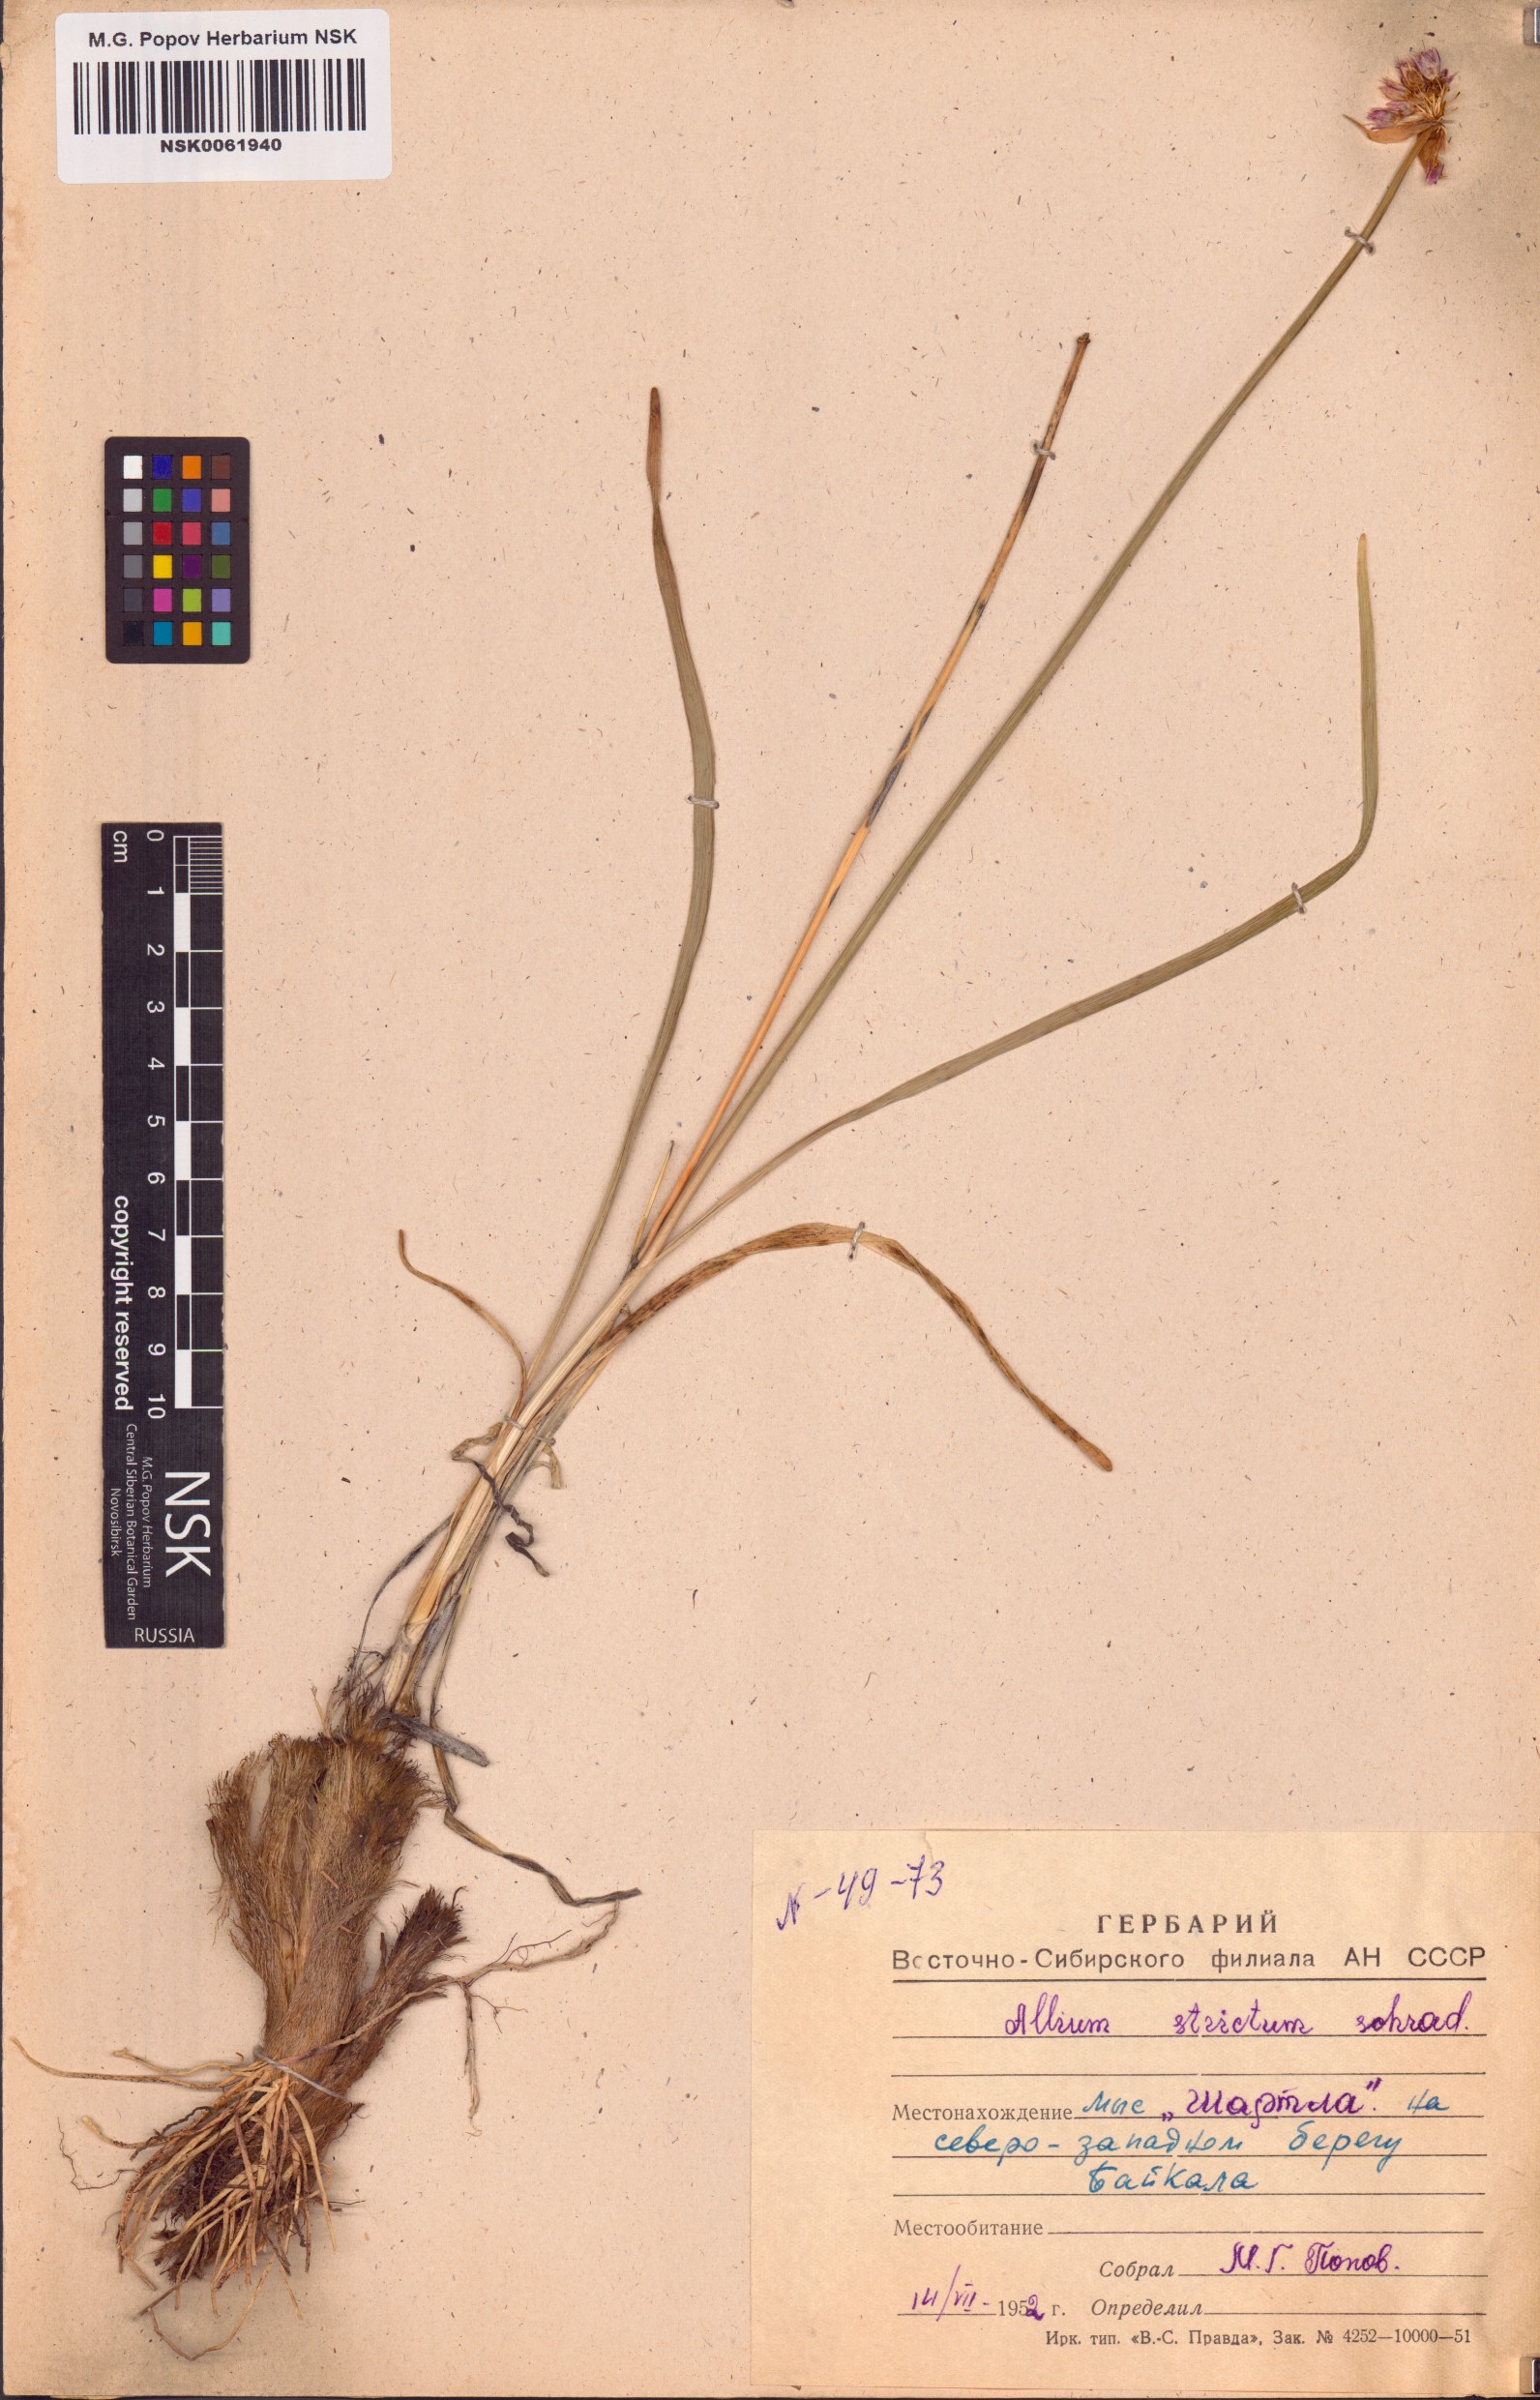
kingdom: Plantae
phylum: Tracheophyta
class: Liliopsida
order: Asparagales
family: Amaryllidaceae
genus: Allium
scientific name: Allium strictum
